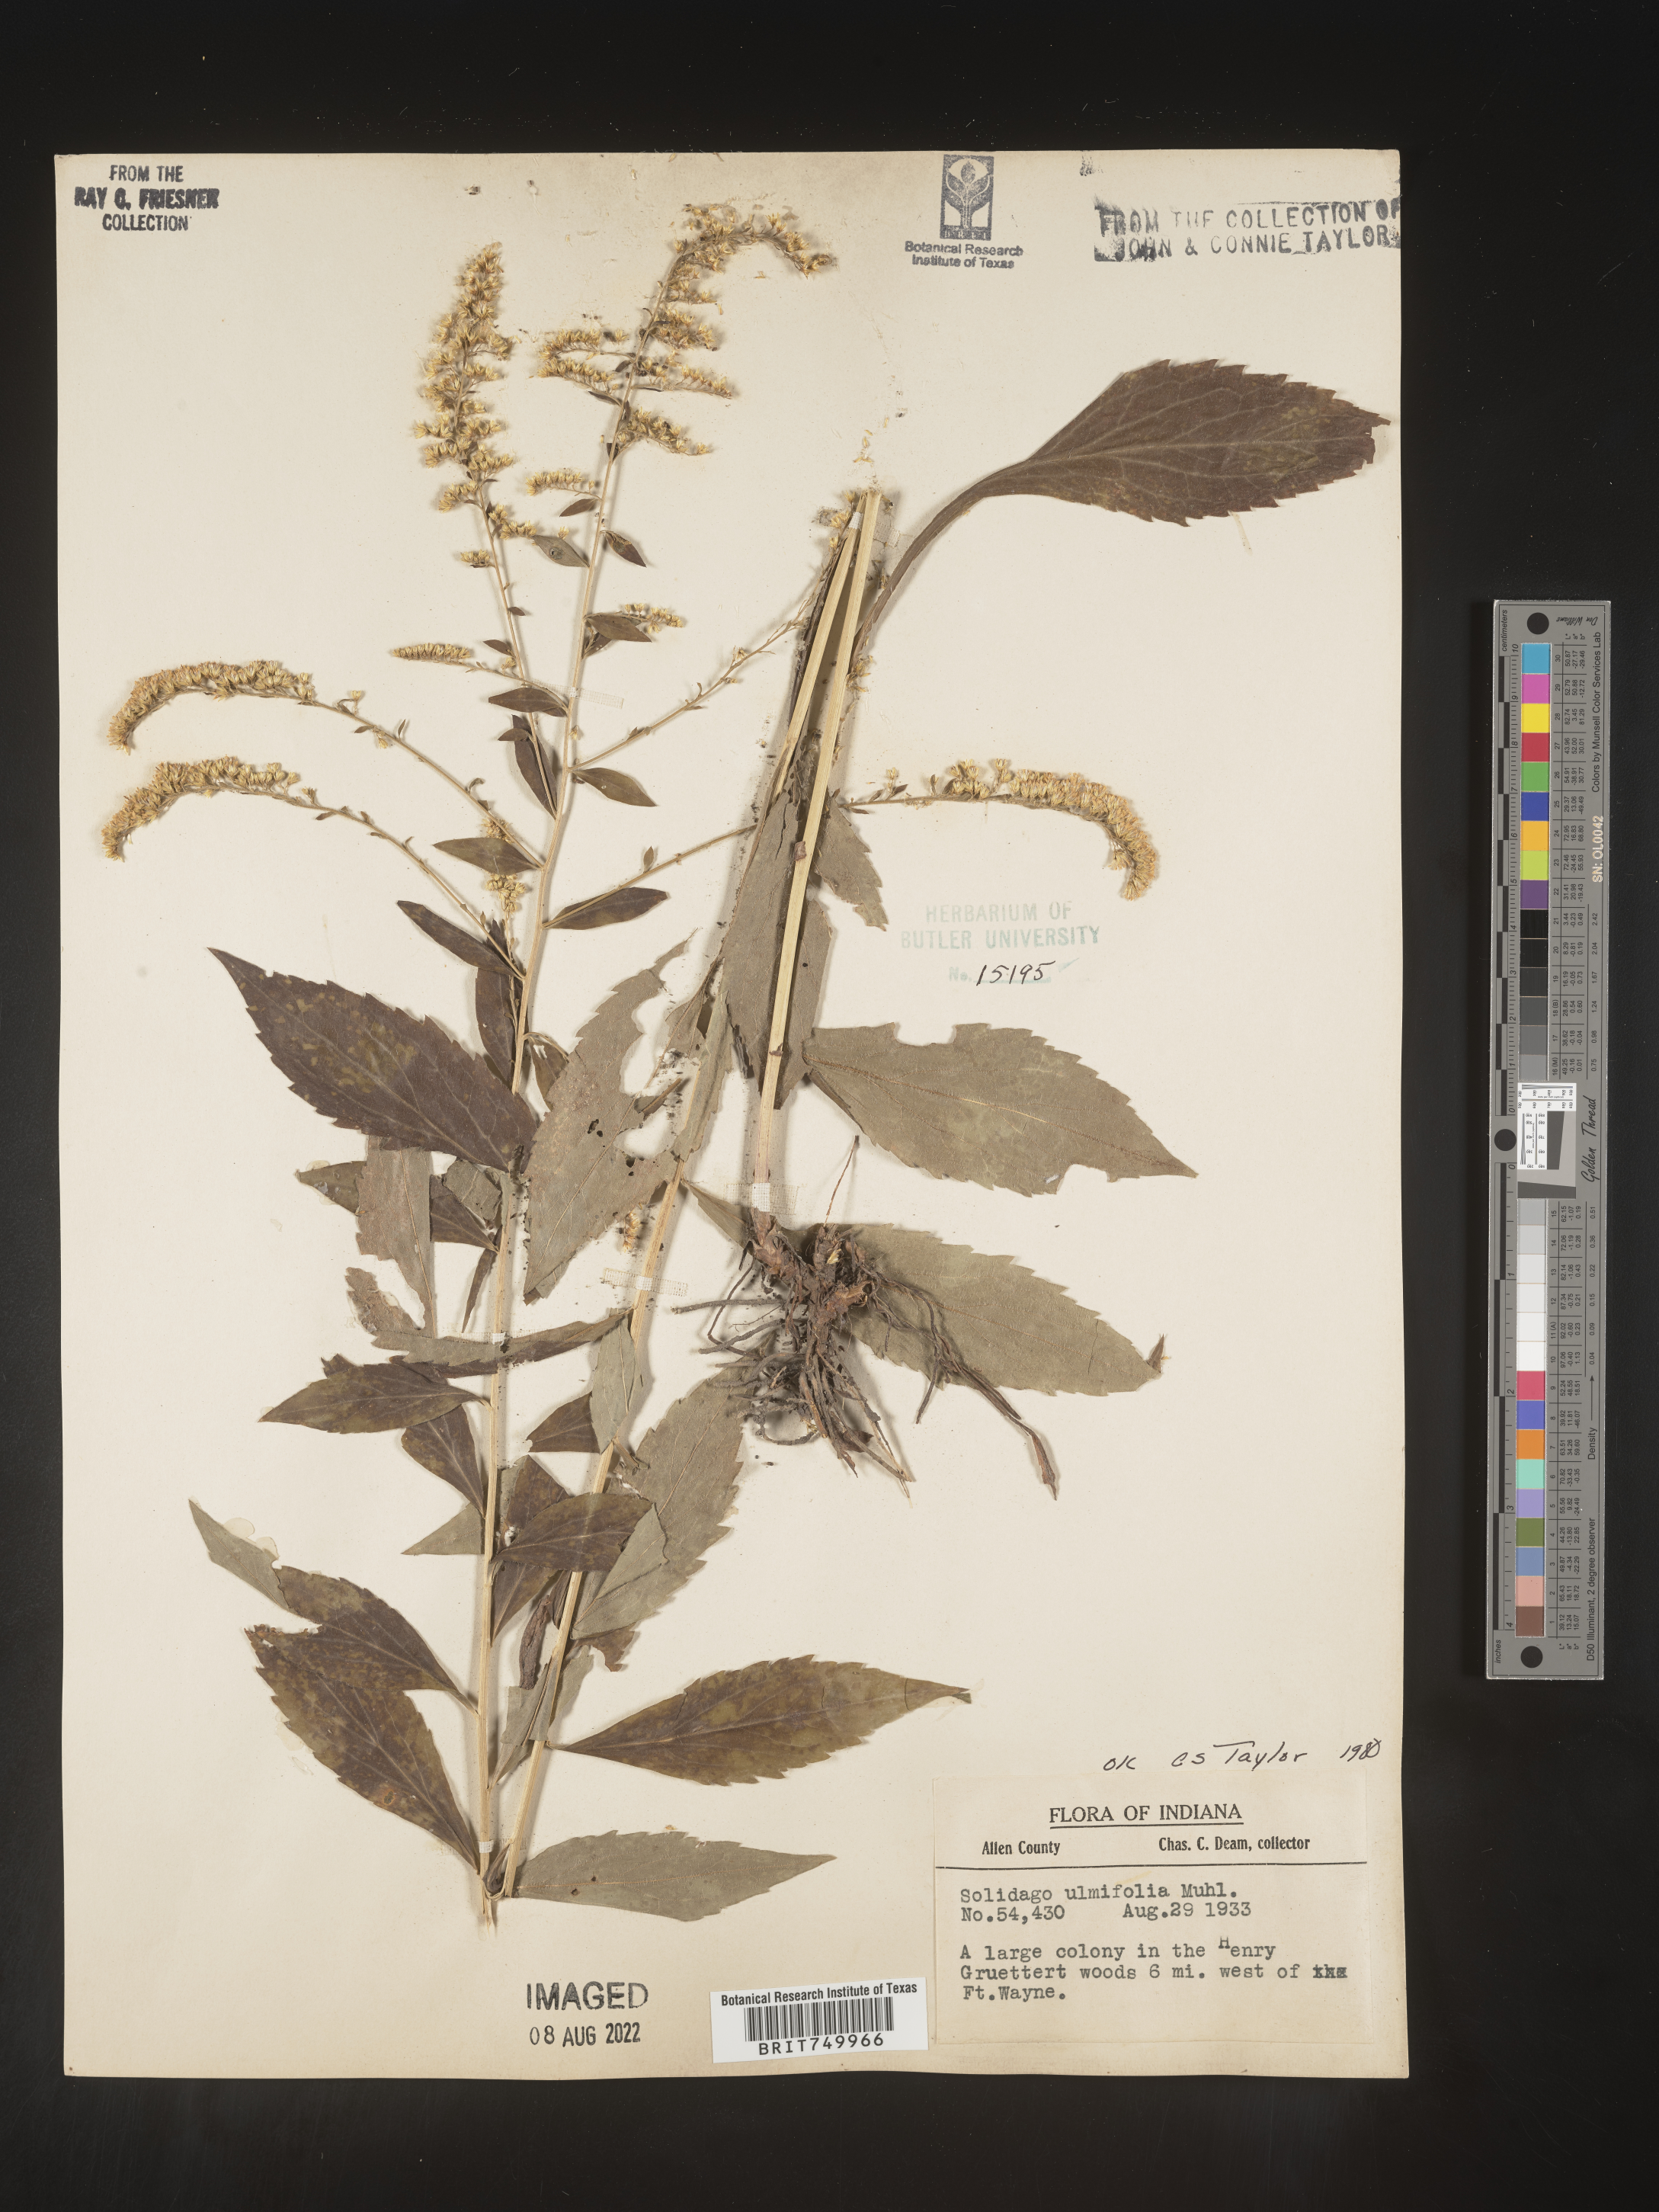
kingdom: Plantae
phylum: Tracheophyta
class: Magnoliopsida
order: Asterales
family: Asteraceae
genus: Solidago
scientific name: Solidago ulmifolia
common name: Elm-leaf goldenrod
